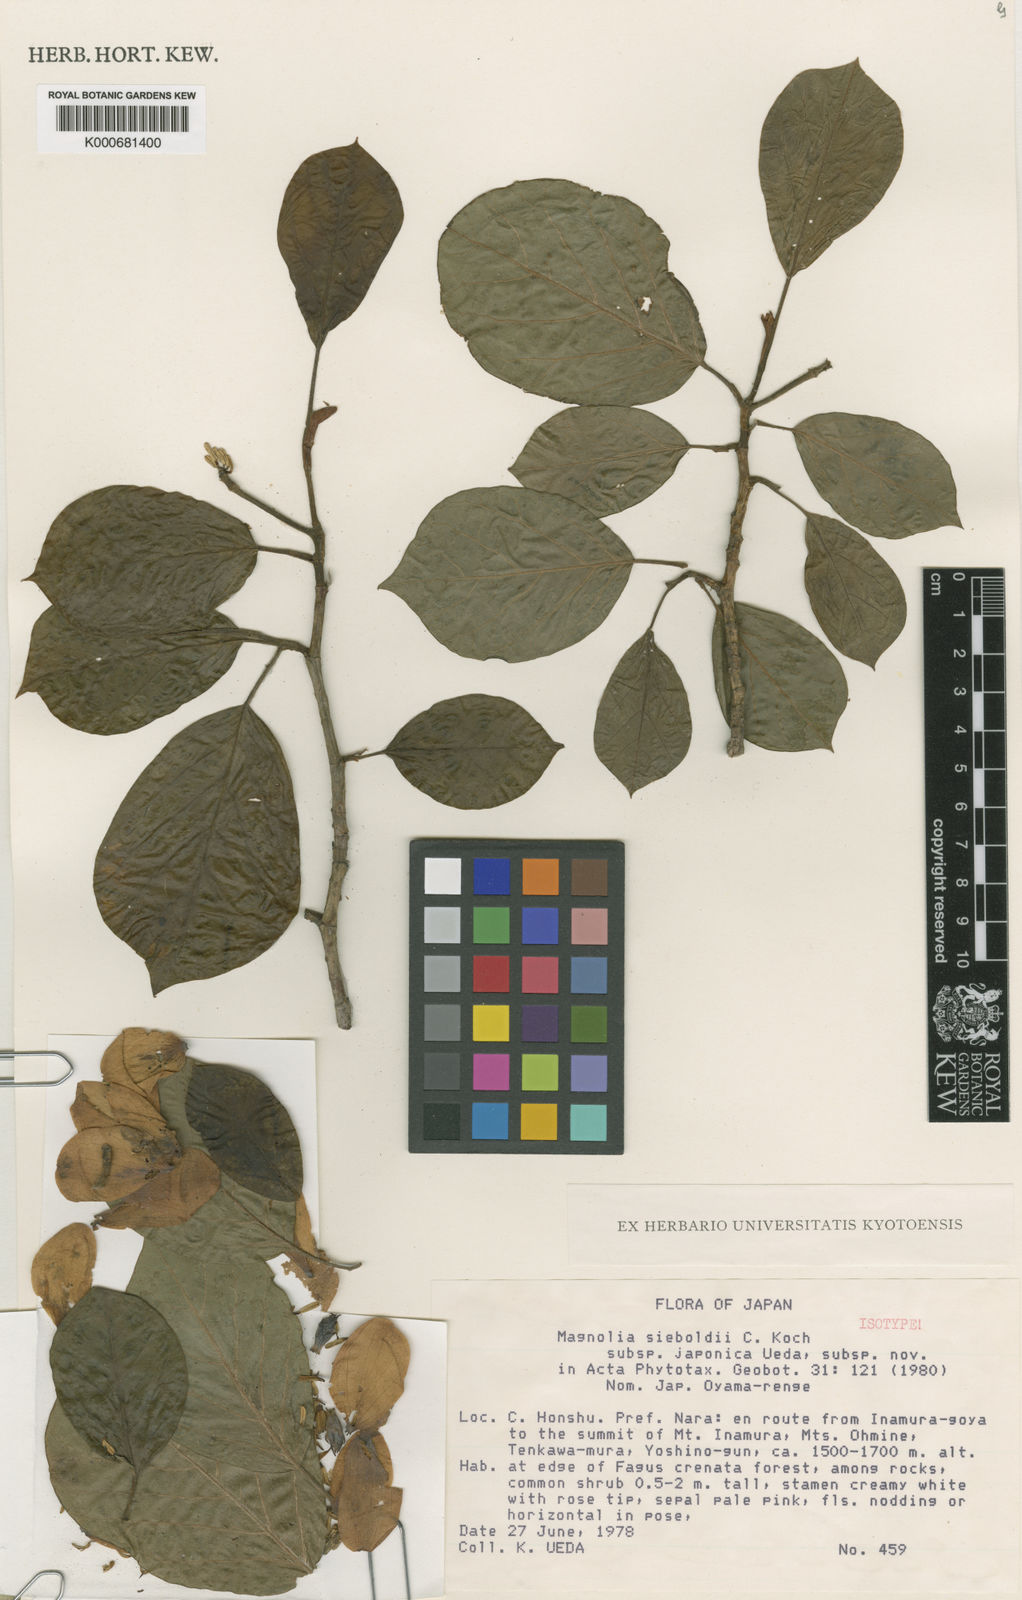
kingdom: Plantae
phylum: Tracheophyta
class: Magnoliopsida
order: Magnoliales
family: Magnoliaceae
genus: Magnolia
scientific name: Magnolia sieboldii
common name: Oyama magnolia
